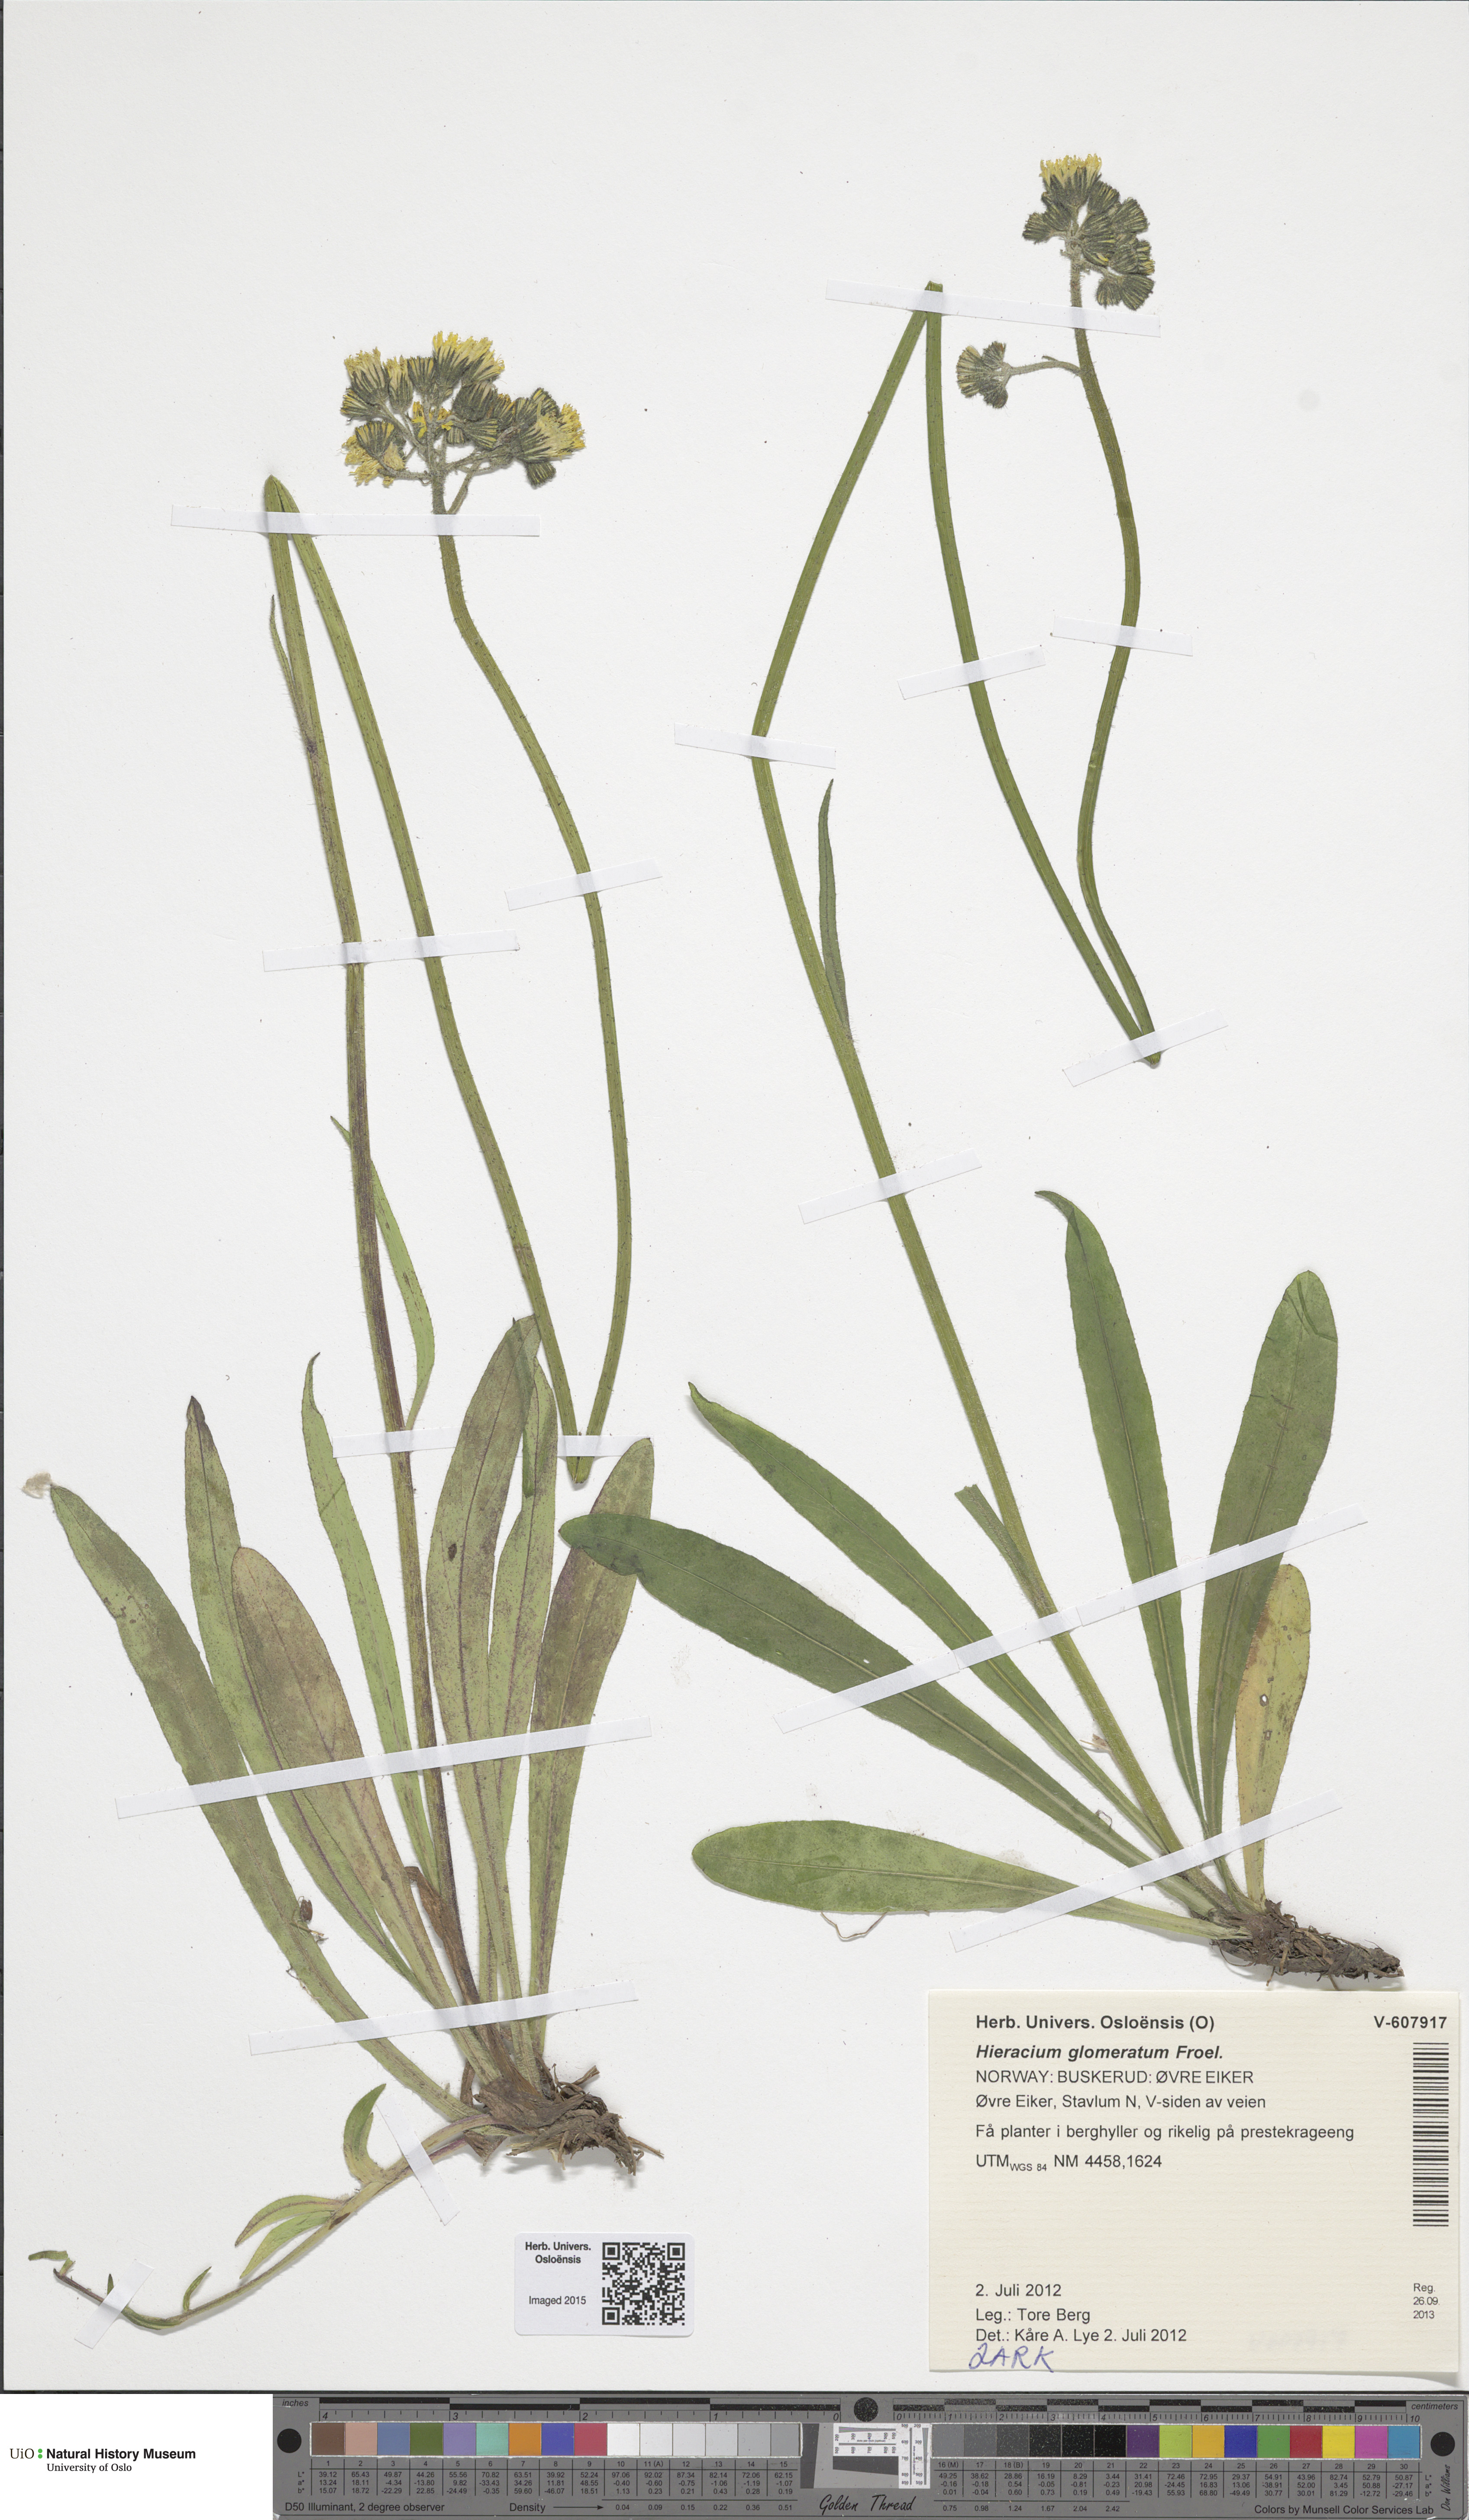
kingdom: Plantae
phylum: Tracheophyta
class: Magnoliopsida
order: Asterales
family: Asteraceae
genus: Pilosella
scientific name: Pilosella glomerata
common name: Queen devil hawkweed
